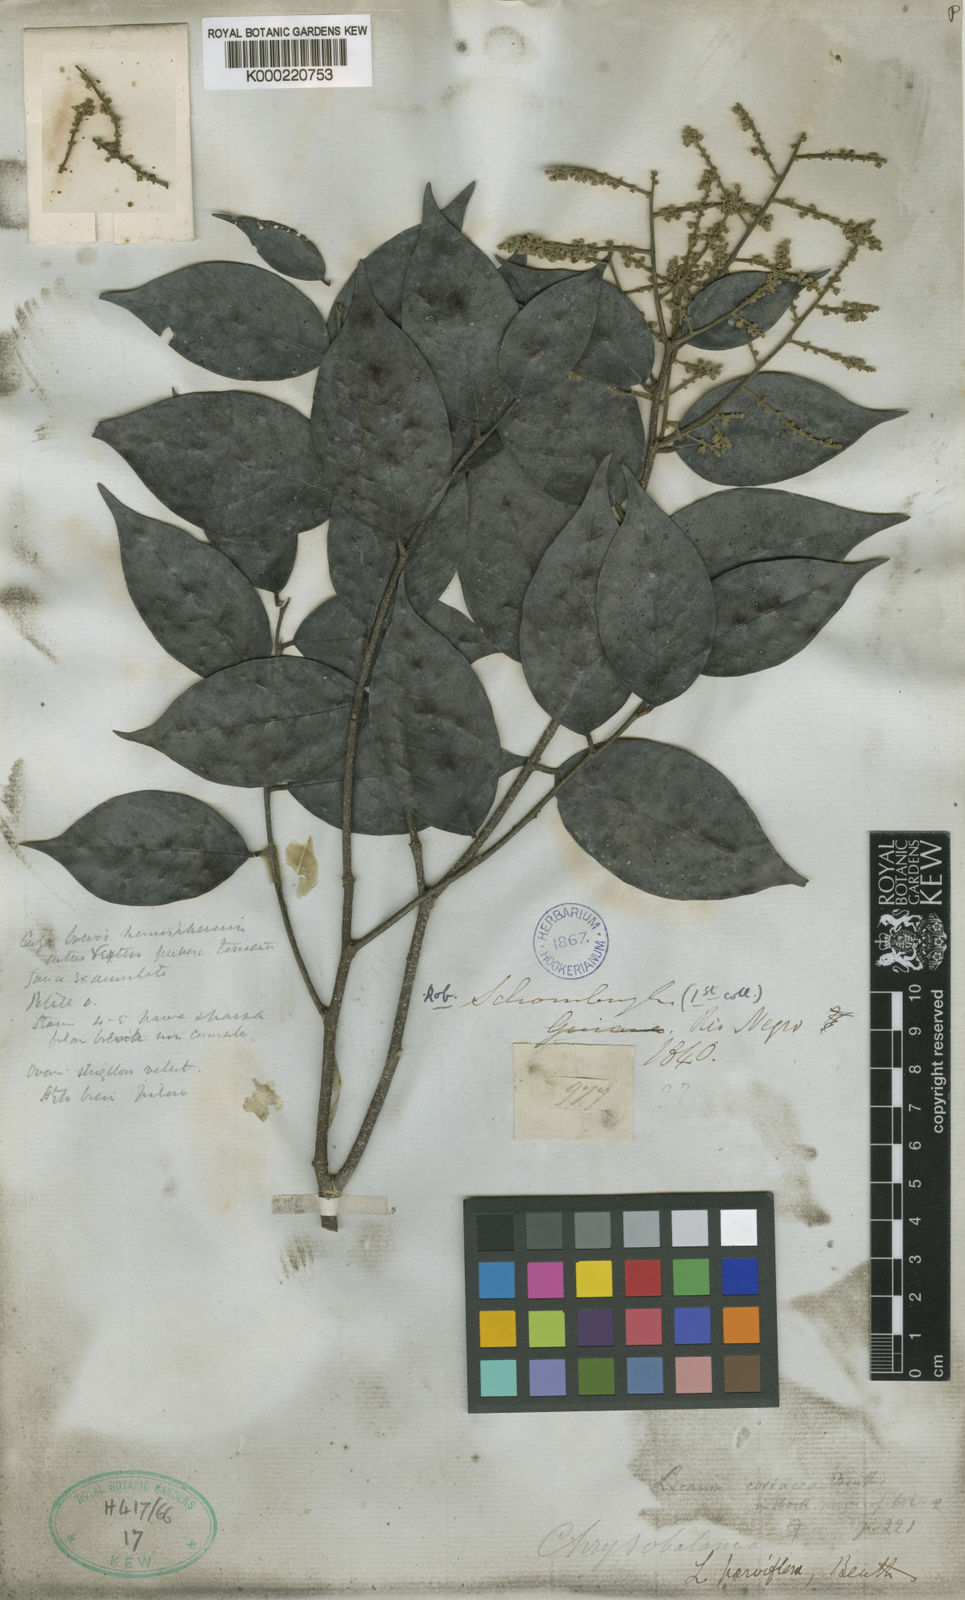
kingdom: Plantae
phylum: Tracheophyta
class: Magnoliopsida
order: Malpighiales
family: Chrysobalanaceae
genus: Leptobalanus
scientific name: Leptobalanus parviflorus
